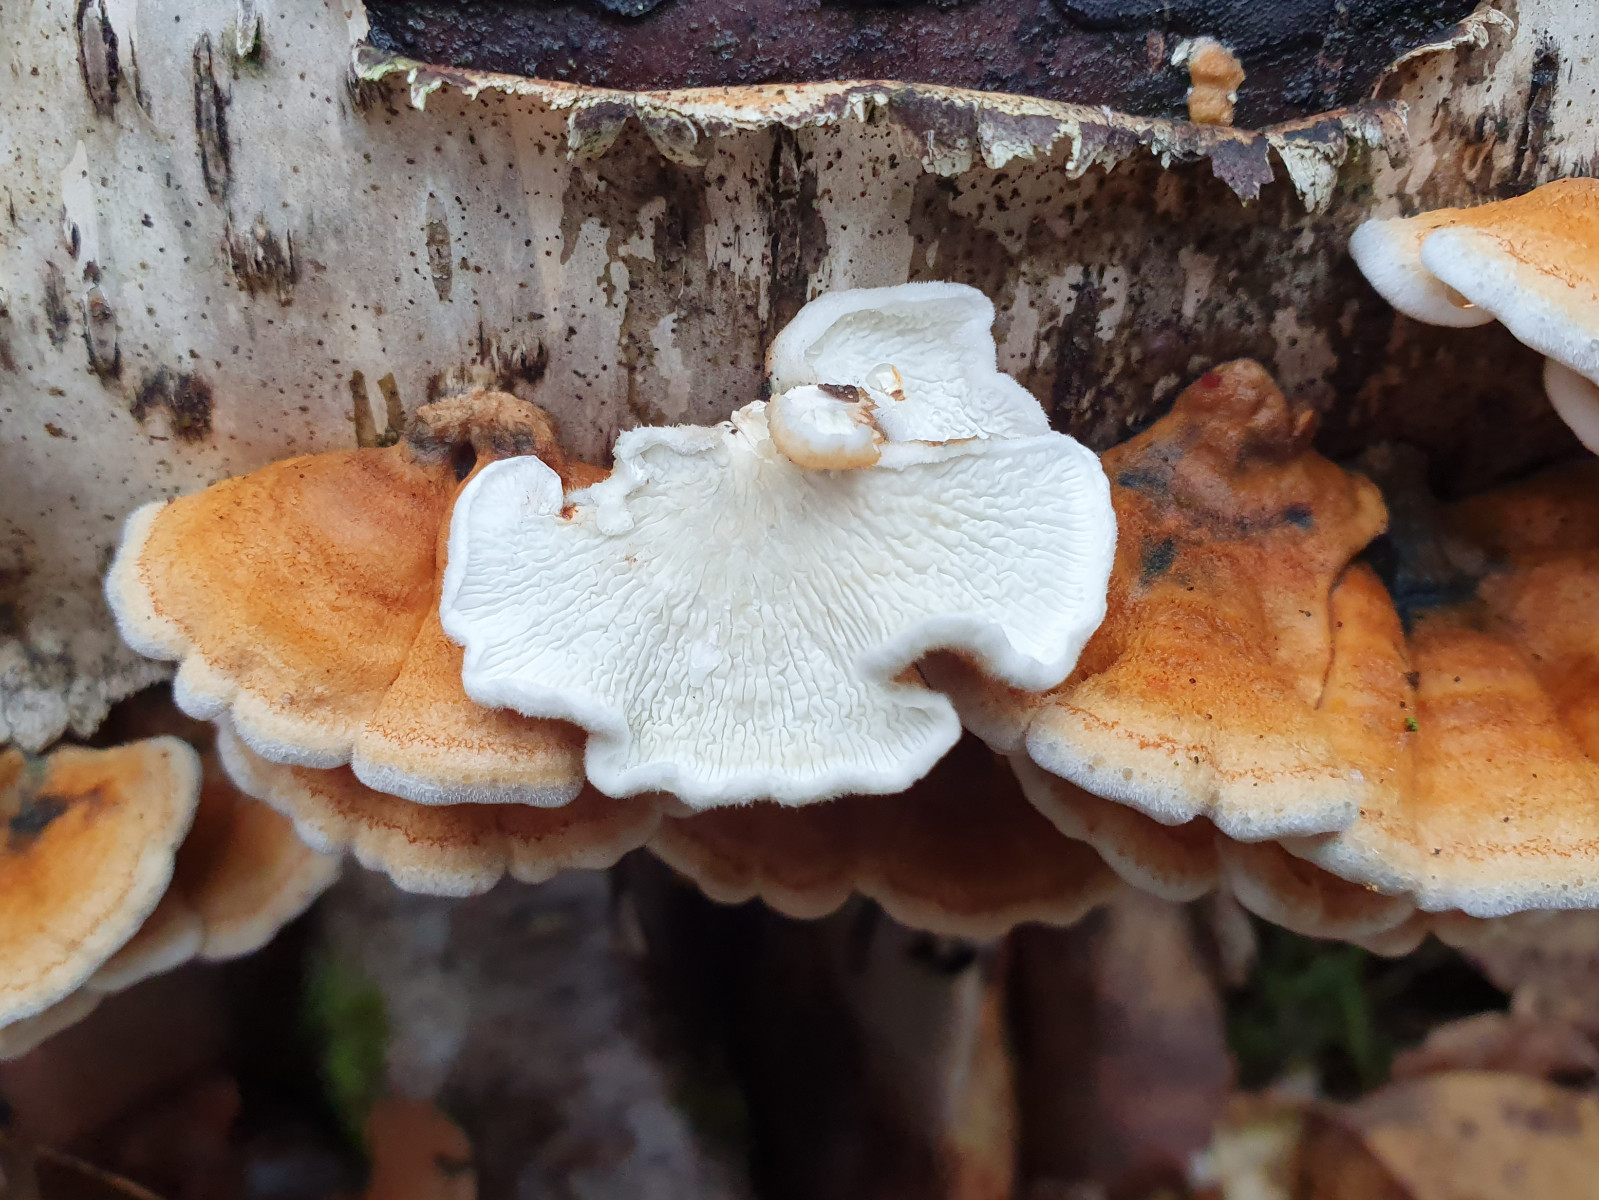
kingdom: Fungi
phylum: Basidiomycota
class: Agaricomycetes
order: Amylocorticiales
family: Amylocorticiaceae
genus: Plicaturopsis
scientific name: Plicaturopsis crispa
